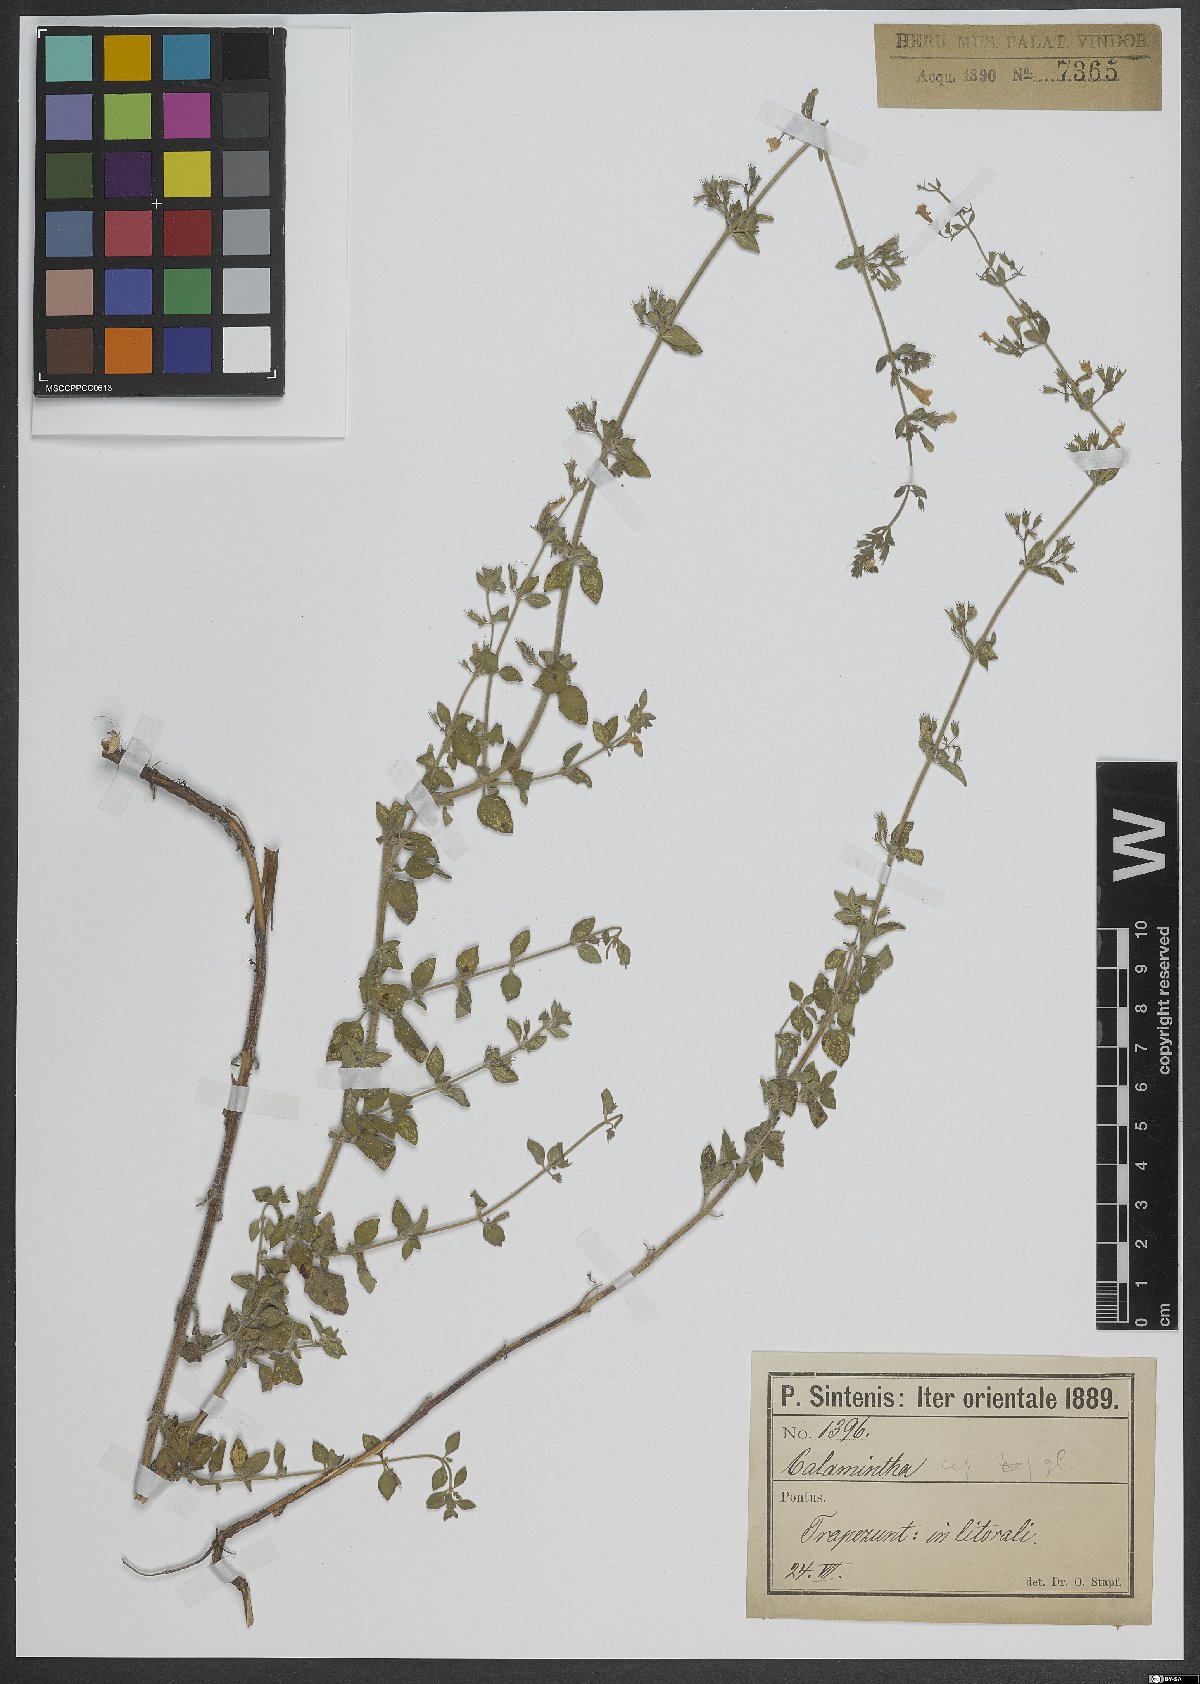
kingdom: Plantae
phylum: Tracheophyta
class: Magnoliopsida
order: Lamiales
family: Lamiaceae
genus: Calamintha
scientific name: Calamintha
